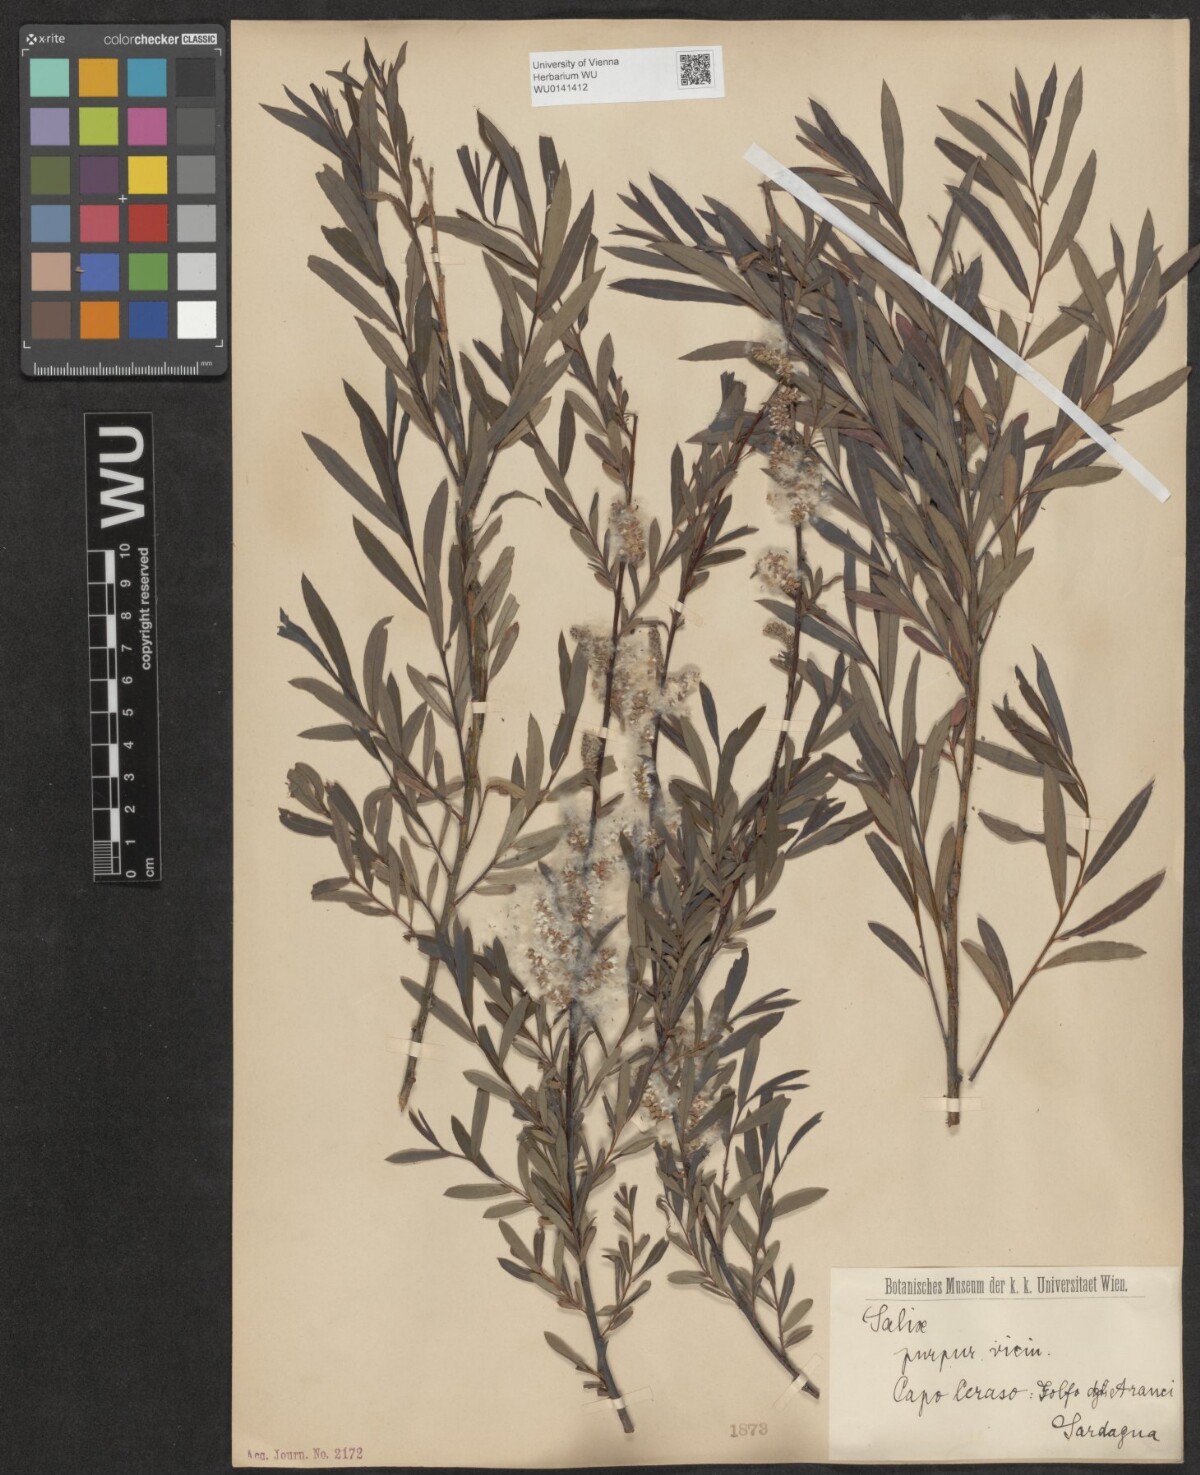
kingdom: Plantae
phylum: Tracheophyta
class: Magnoliopsida
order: Malpighiales
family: Salicaceae
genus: Salix
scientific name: Salix purpurea
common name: Purple willow
